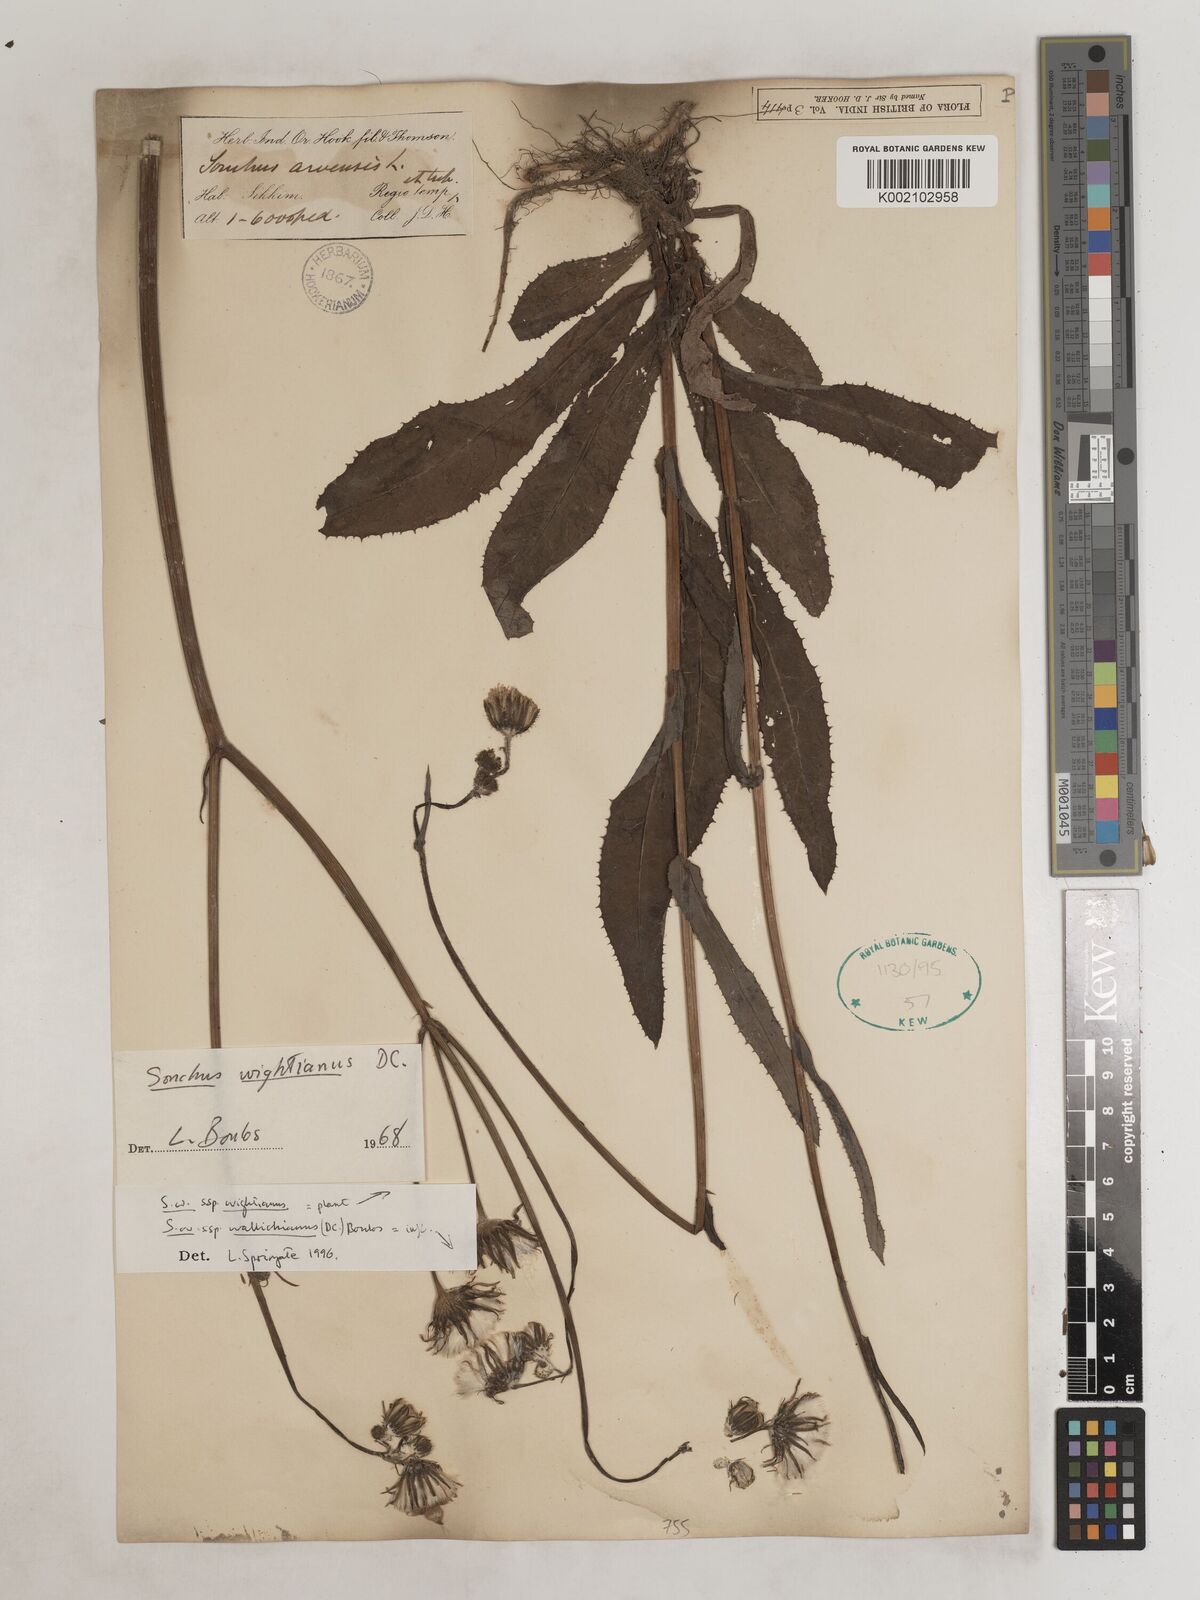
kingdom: Plantae
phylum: Tracheophyta
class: Magnoliopsida
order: Asterales
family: Asteraceae
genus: Sonchus
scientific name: Sonchus arvensis
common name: Perennial sow-thistle
